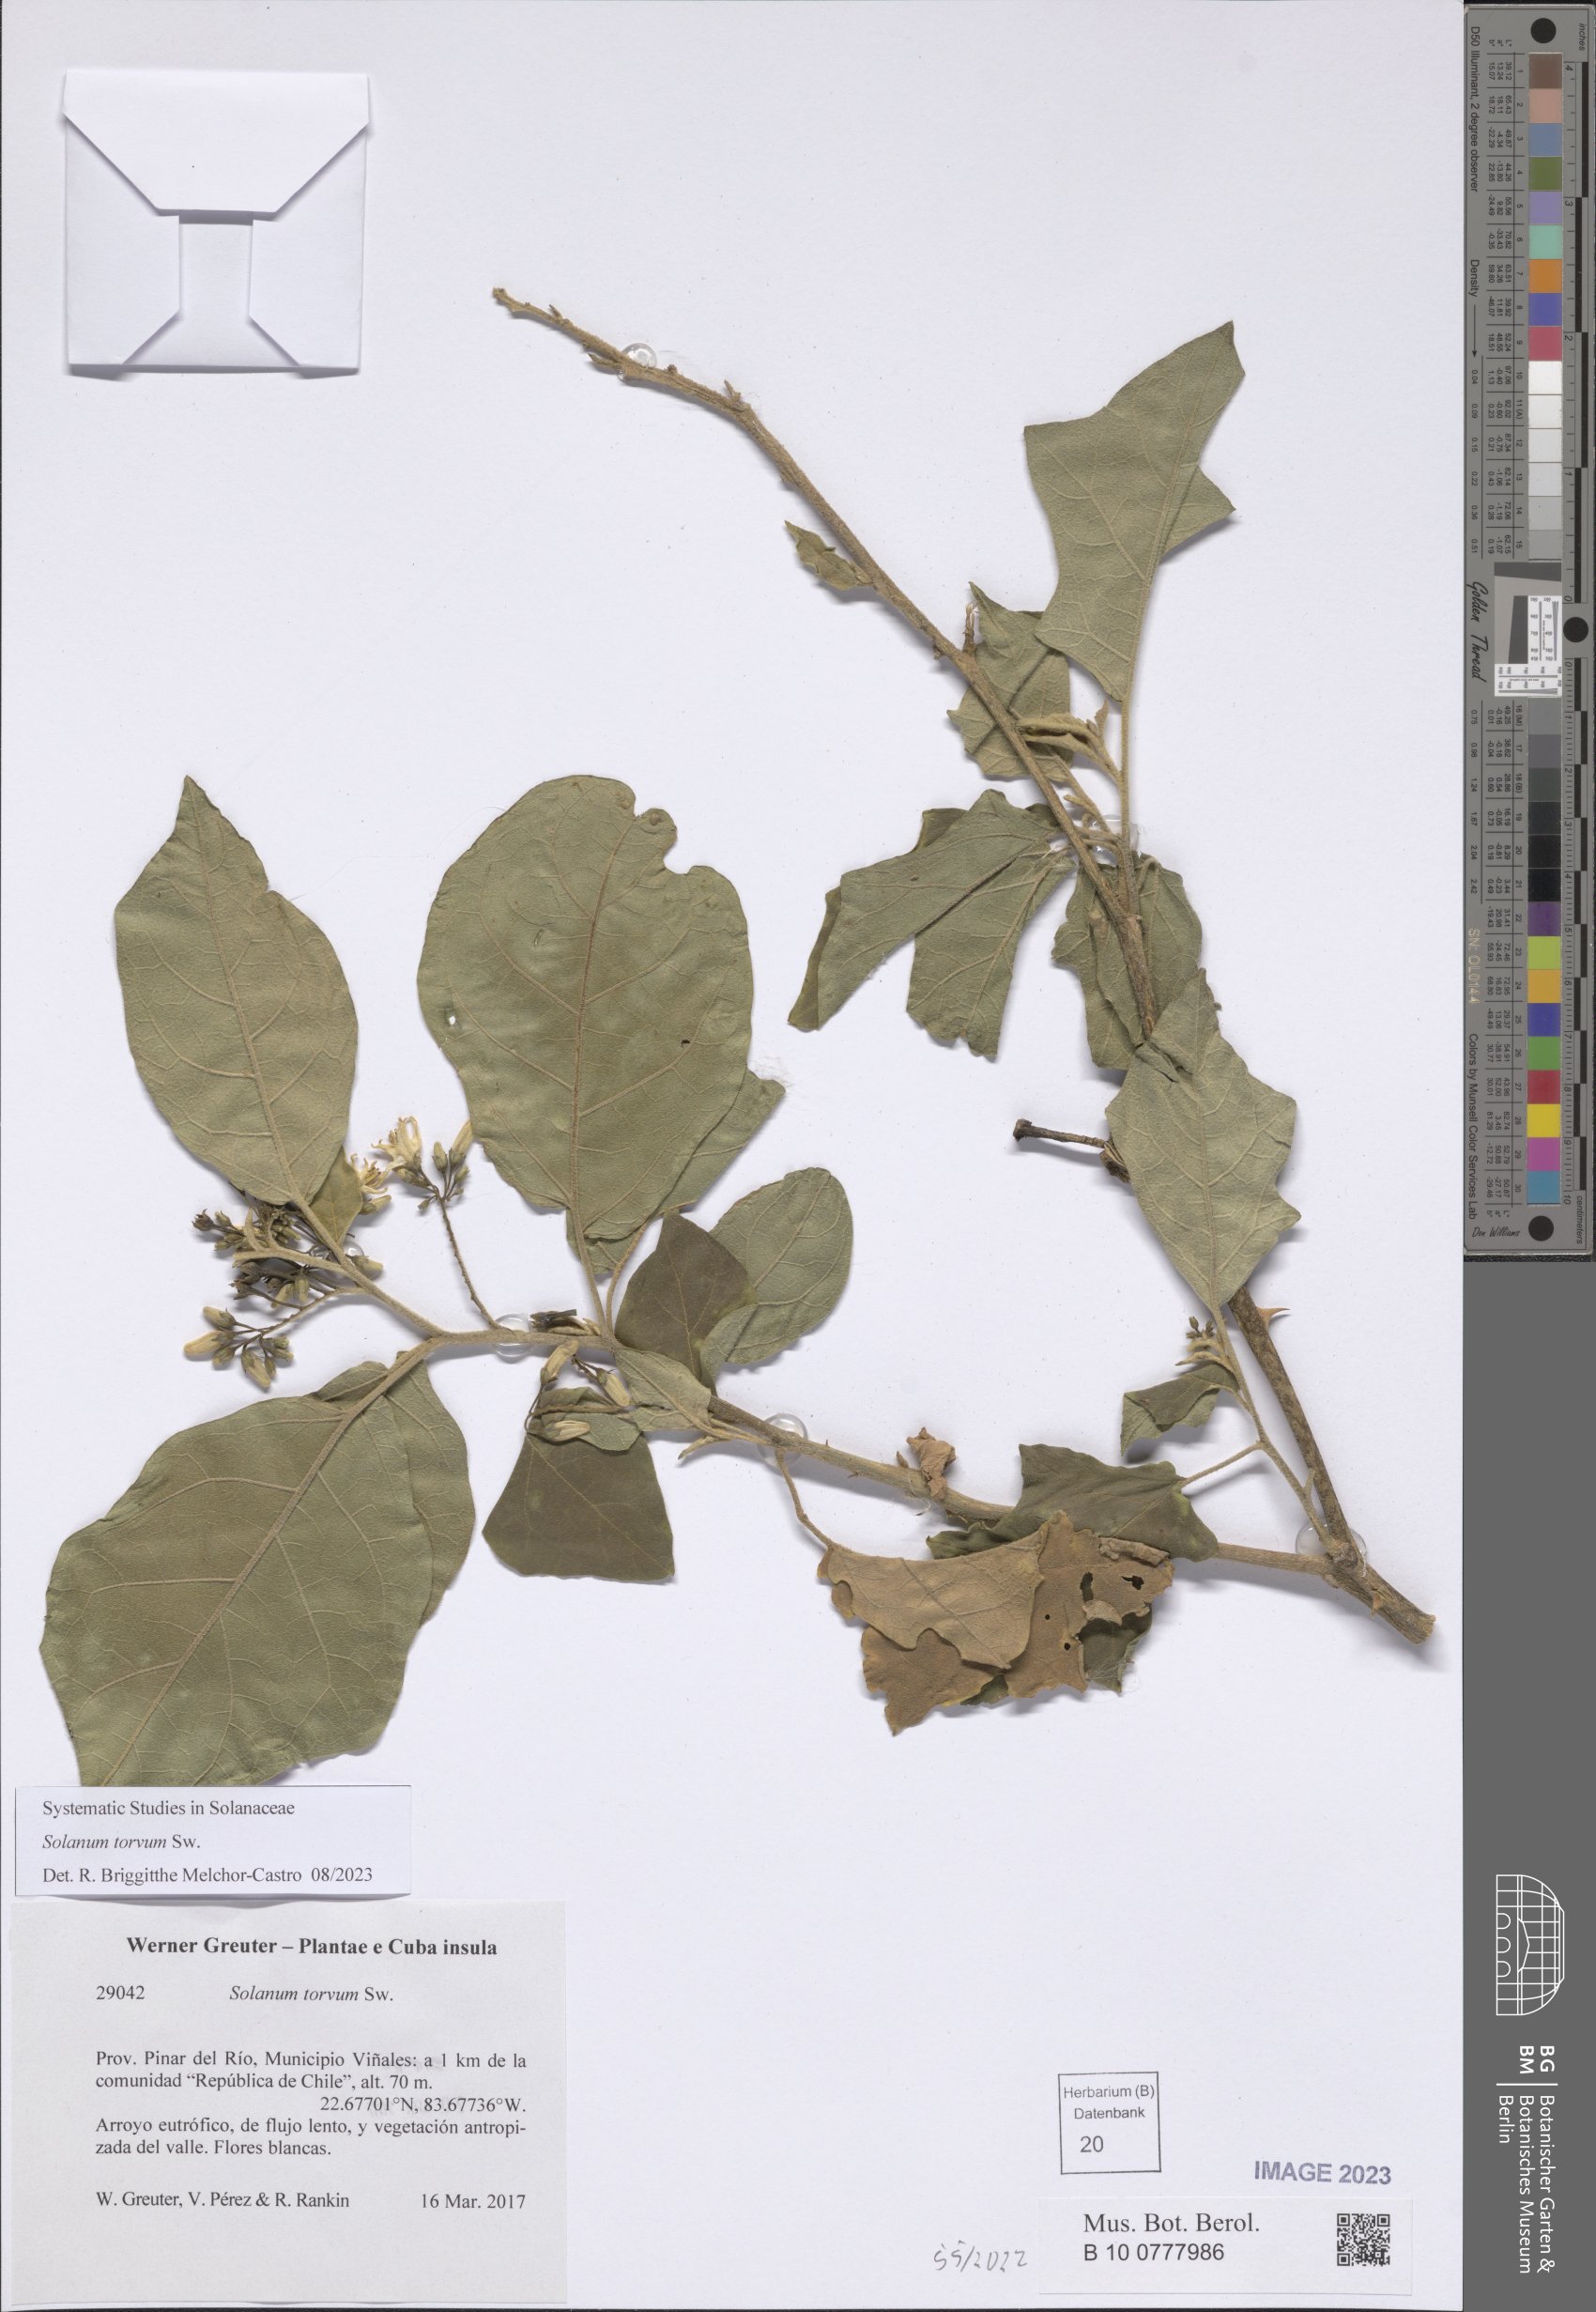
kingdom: Plantae
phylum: Tracheophyta
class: Magnoliopsida
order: Solanales
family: Solanaceae
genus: Solanum
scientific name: Solanum torvum
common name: Turkey berry
